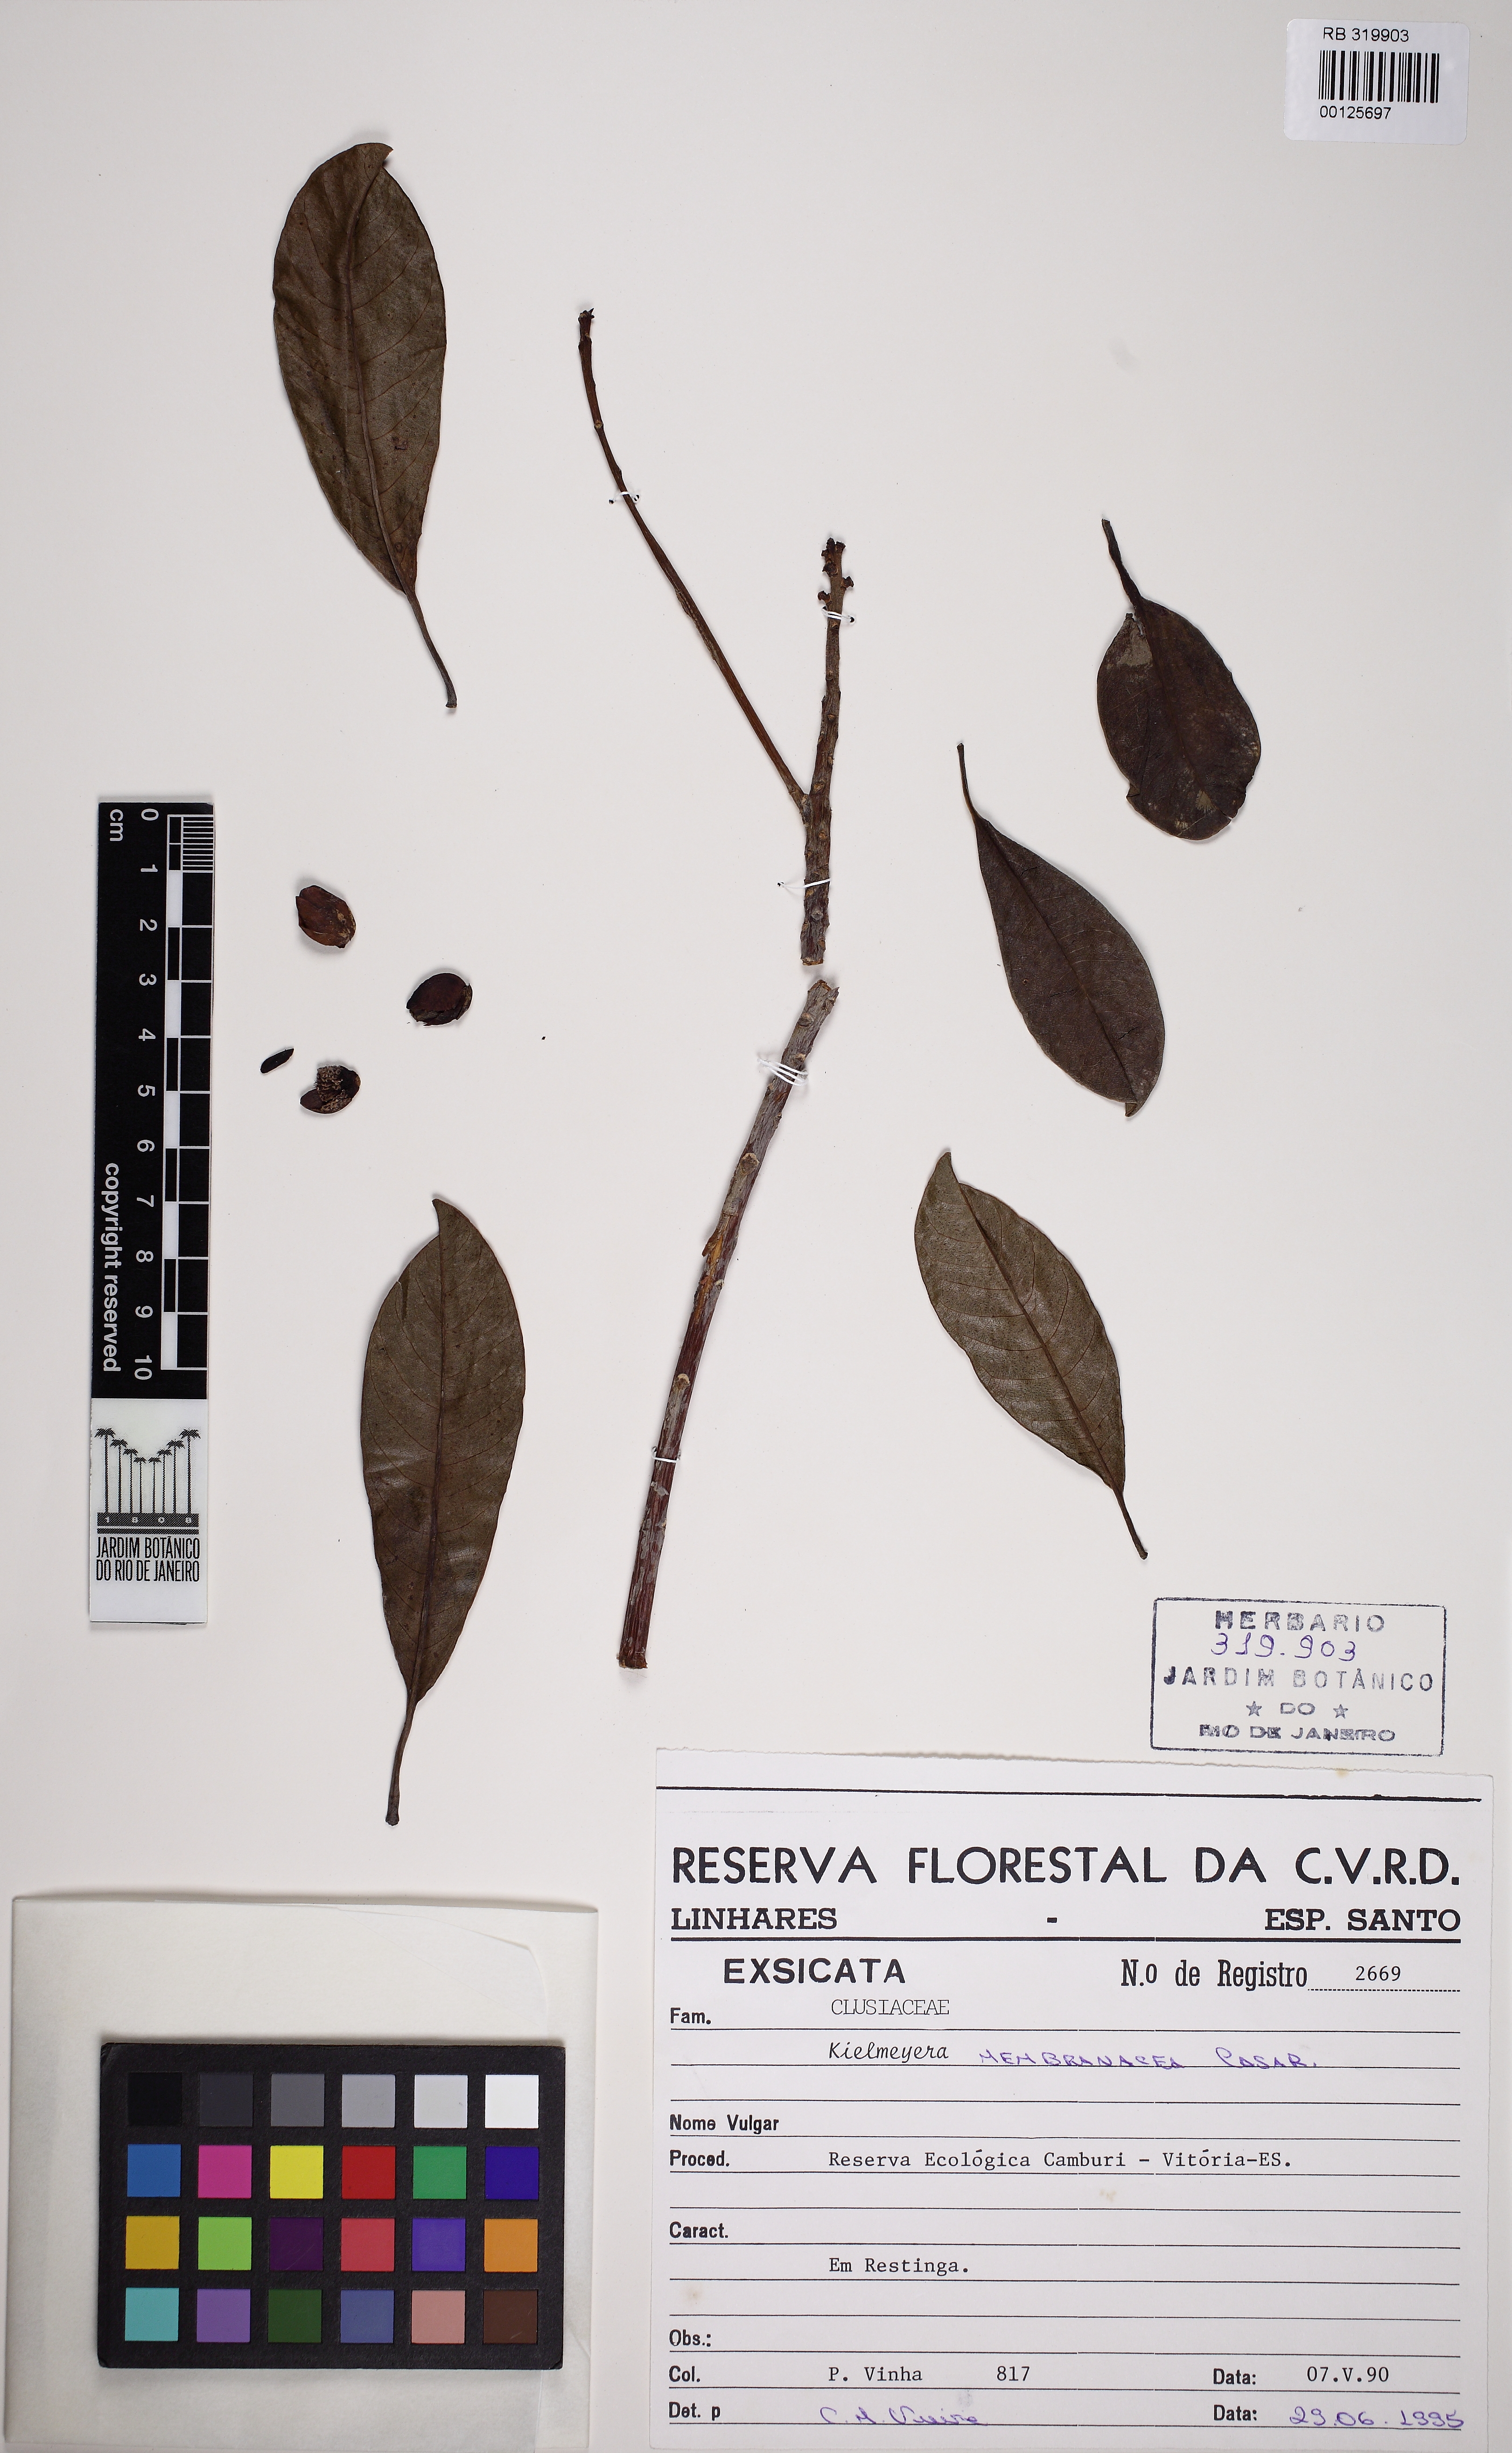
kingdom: Plantae
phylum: Tracheophyta
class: Magnoliopsida
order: Malpighiales
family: Calophyllaceae
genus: Kielmeyera
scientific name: Kielmeyera membranacea
